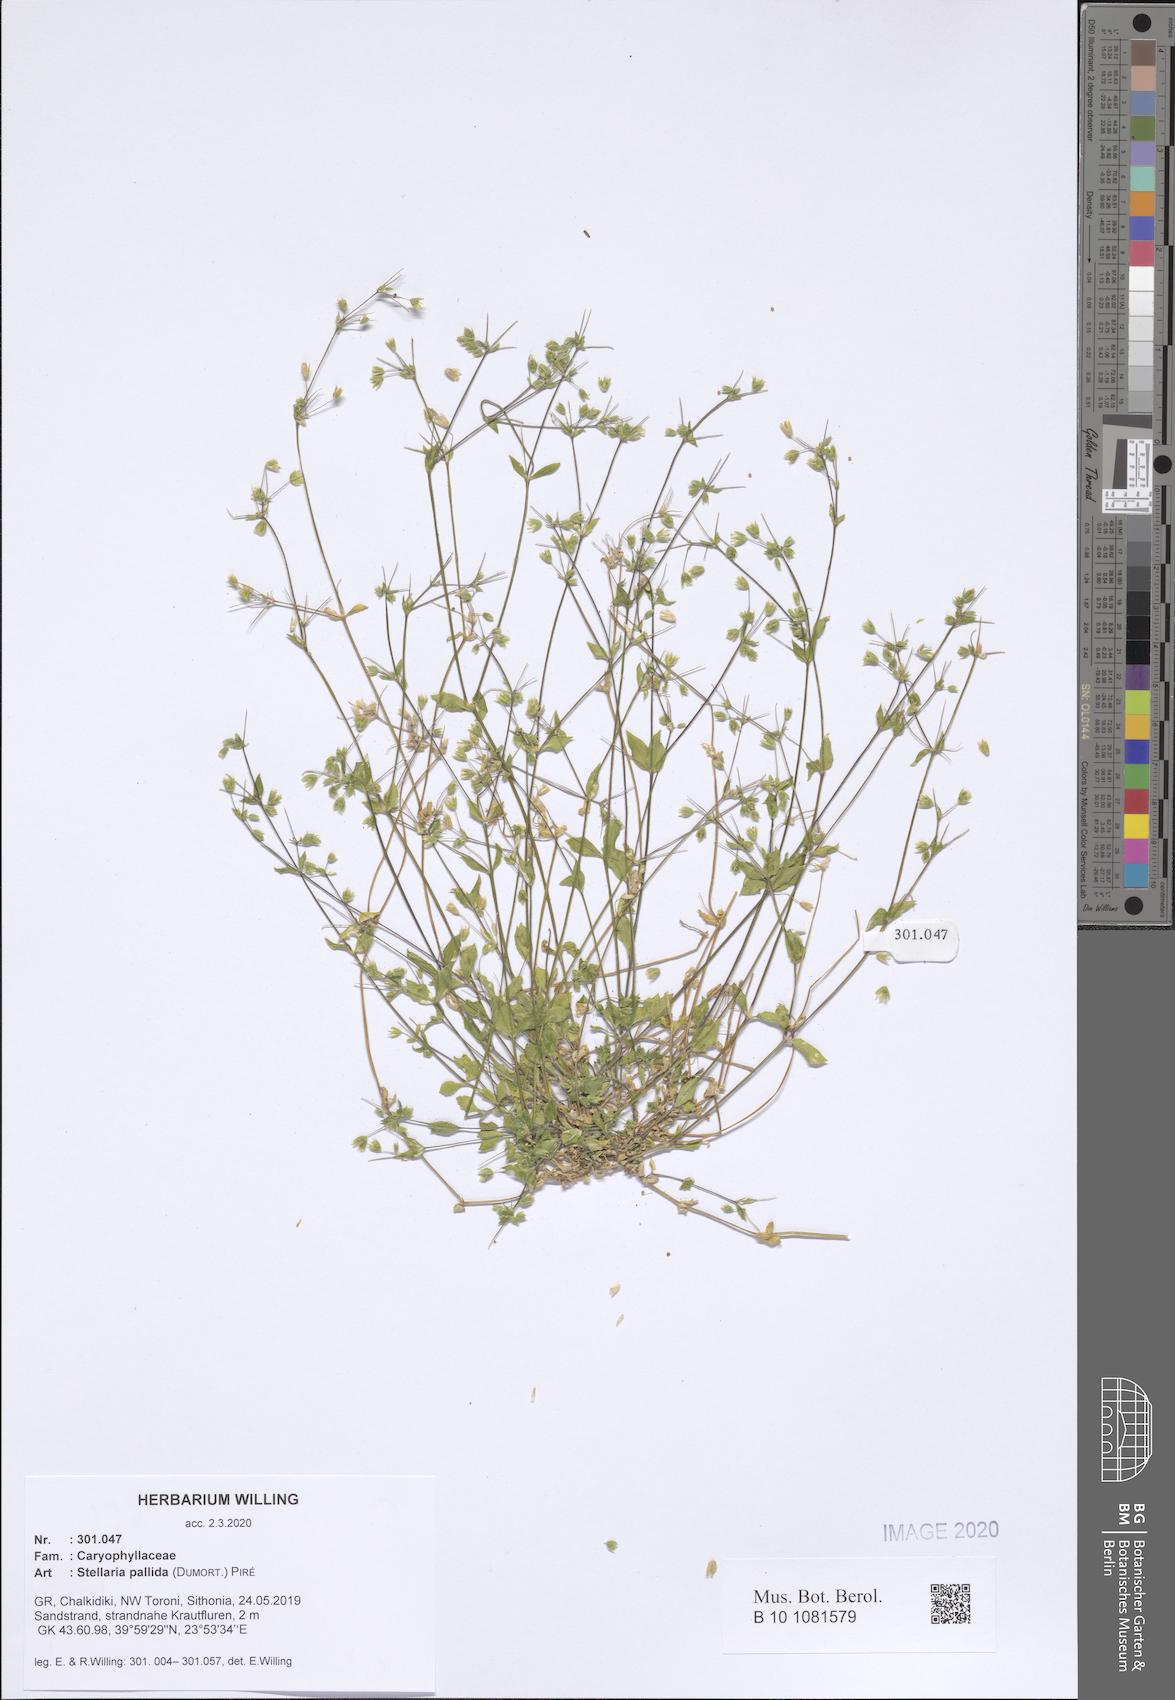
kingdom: Plantae
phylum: Tracheophyta
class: Magnoliopsida
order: Caryophyllales
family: Caryophyllaceae
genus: Stellaria
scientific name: Stellaria apetala
